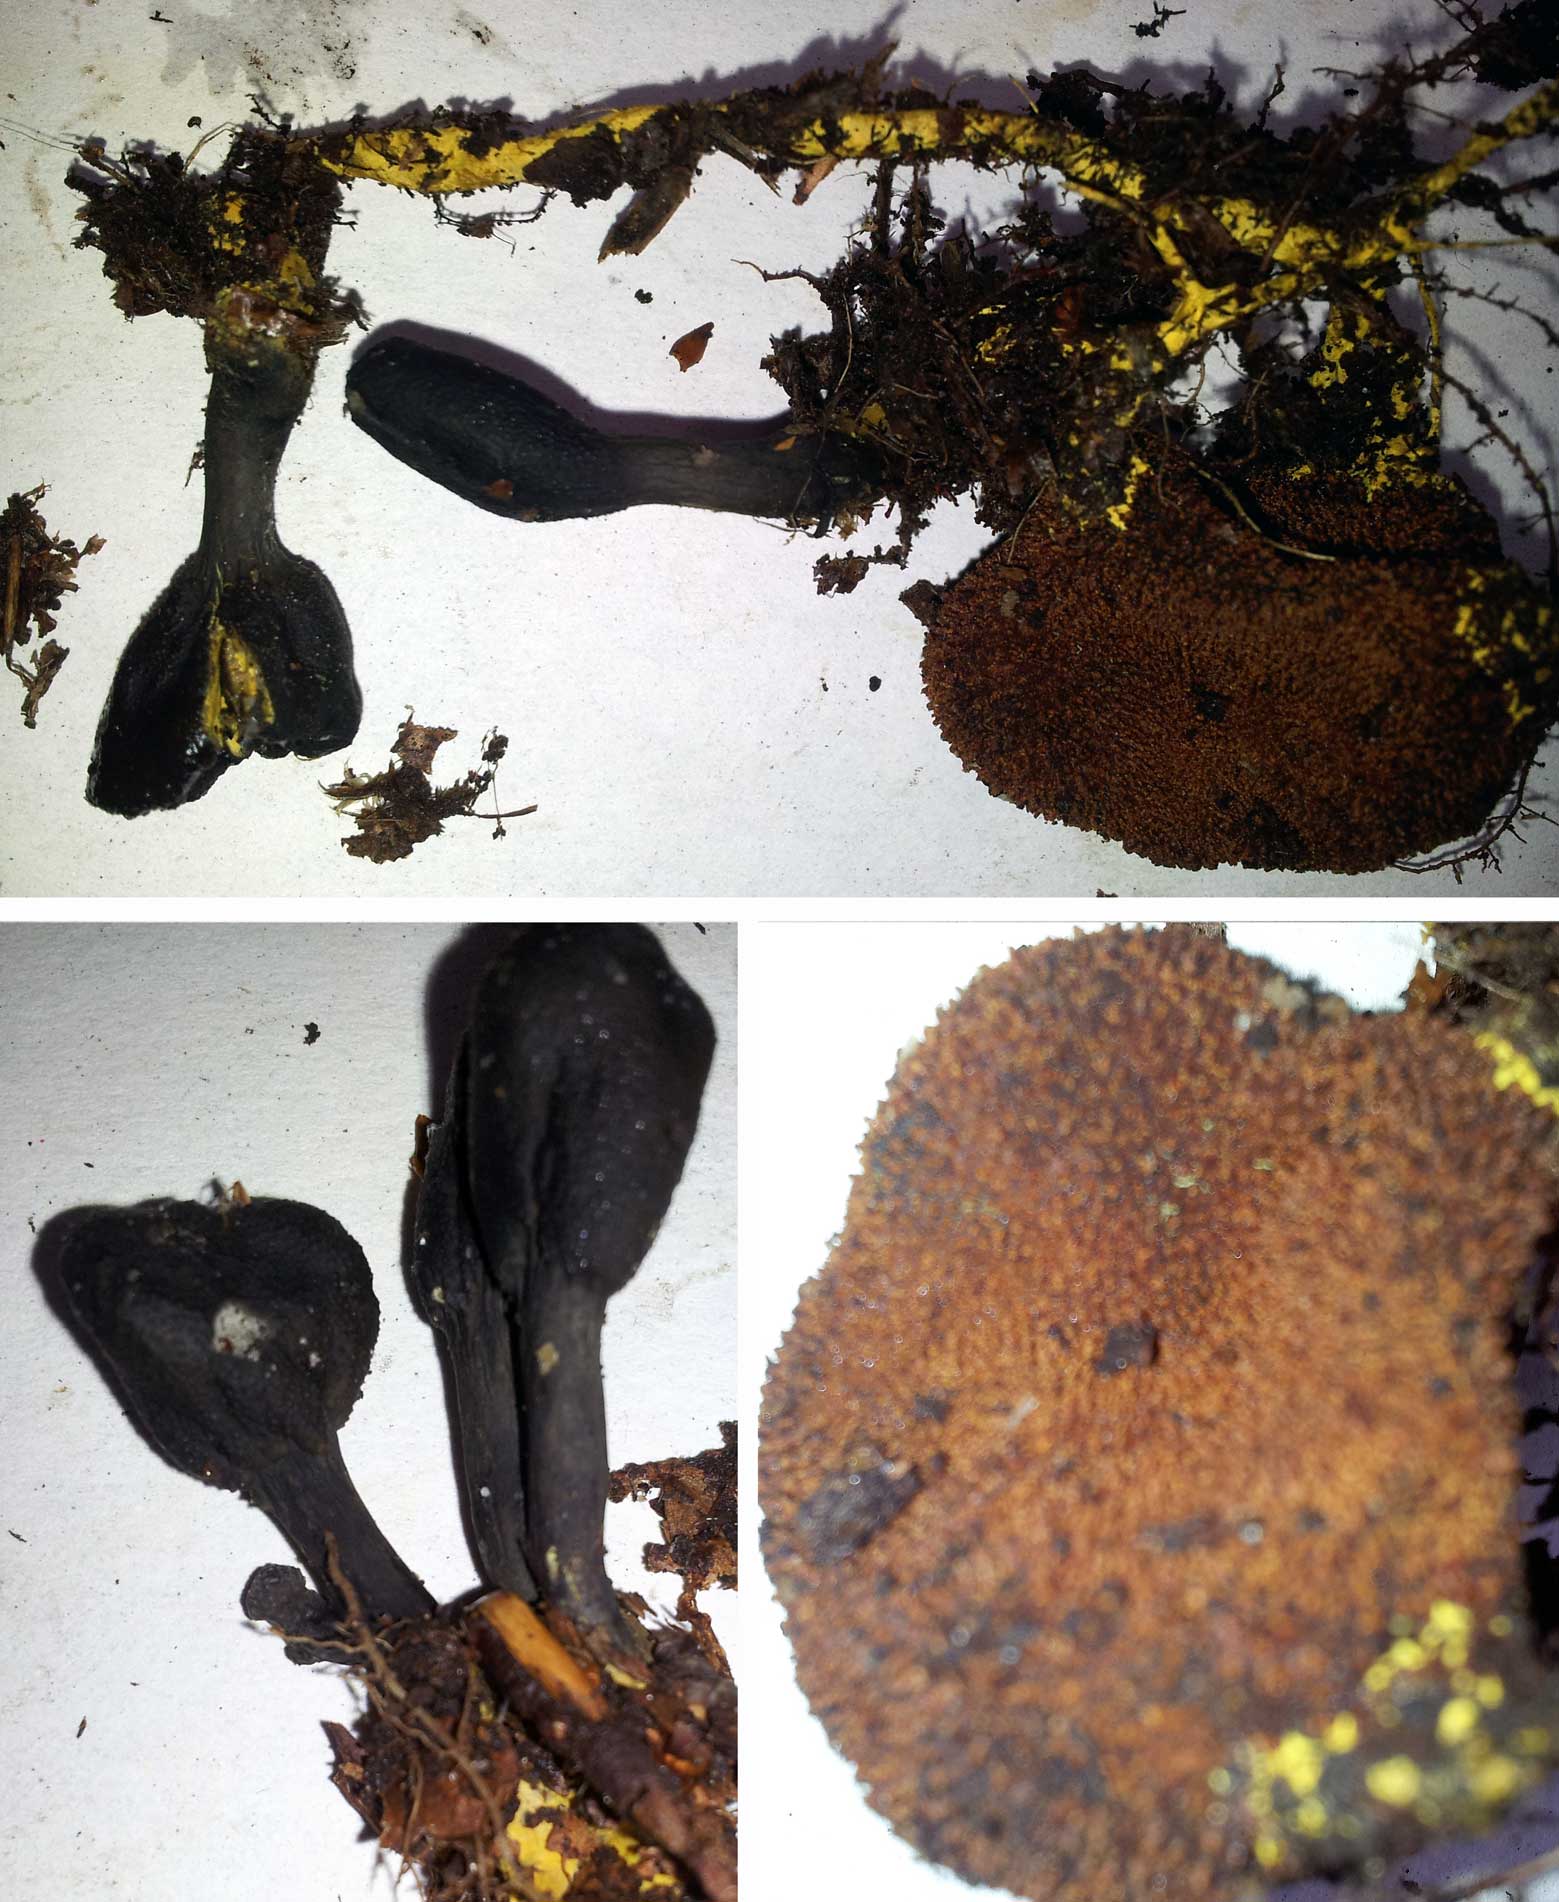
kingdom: Fungi
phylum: Ascomycota
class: Sordariomycetes
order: Hypocreales
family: Ophiocordycipitaceae
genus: Tolypocladium
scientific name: Tolypocladium ophioglossoides
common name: slank snyltekølle
